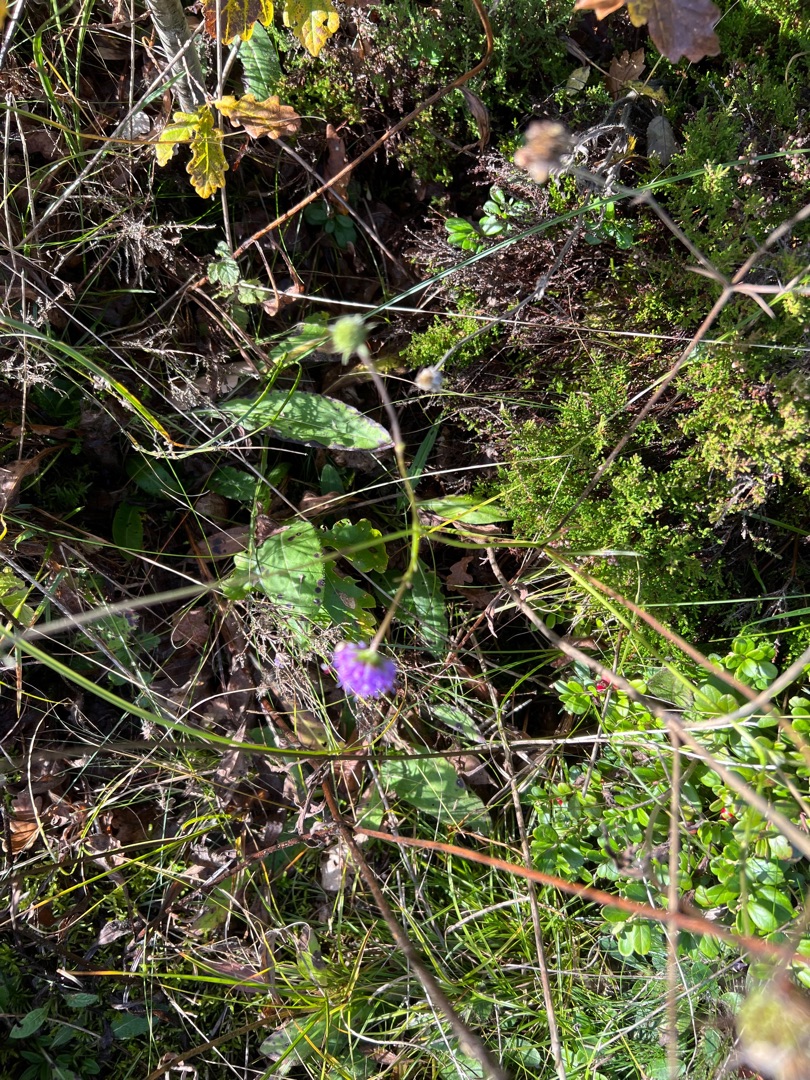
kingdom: Plantae
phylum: Tracheophyta
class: Magnoliopsida
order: Dipsacales
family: Caprifoliaceae
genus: Succisa
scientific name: Succisa pratensis
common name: Djævelsbid
